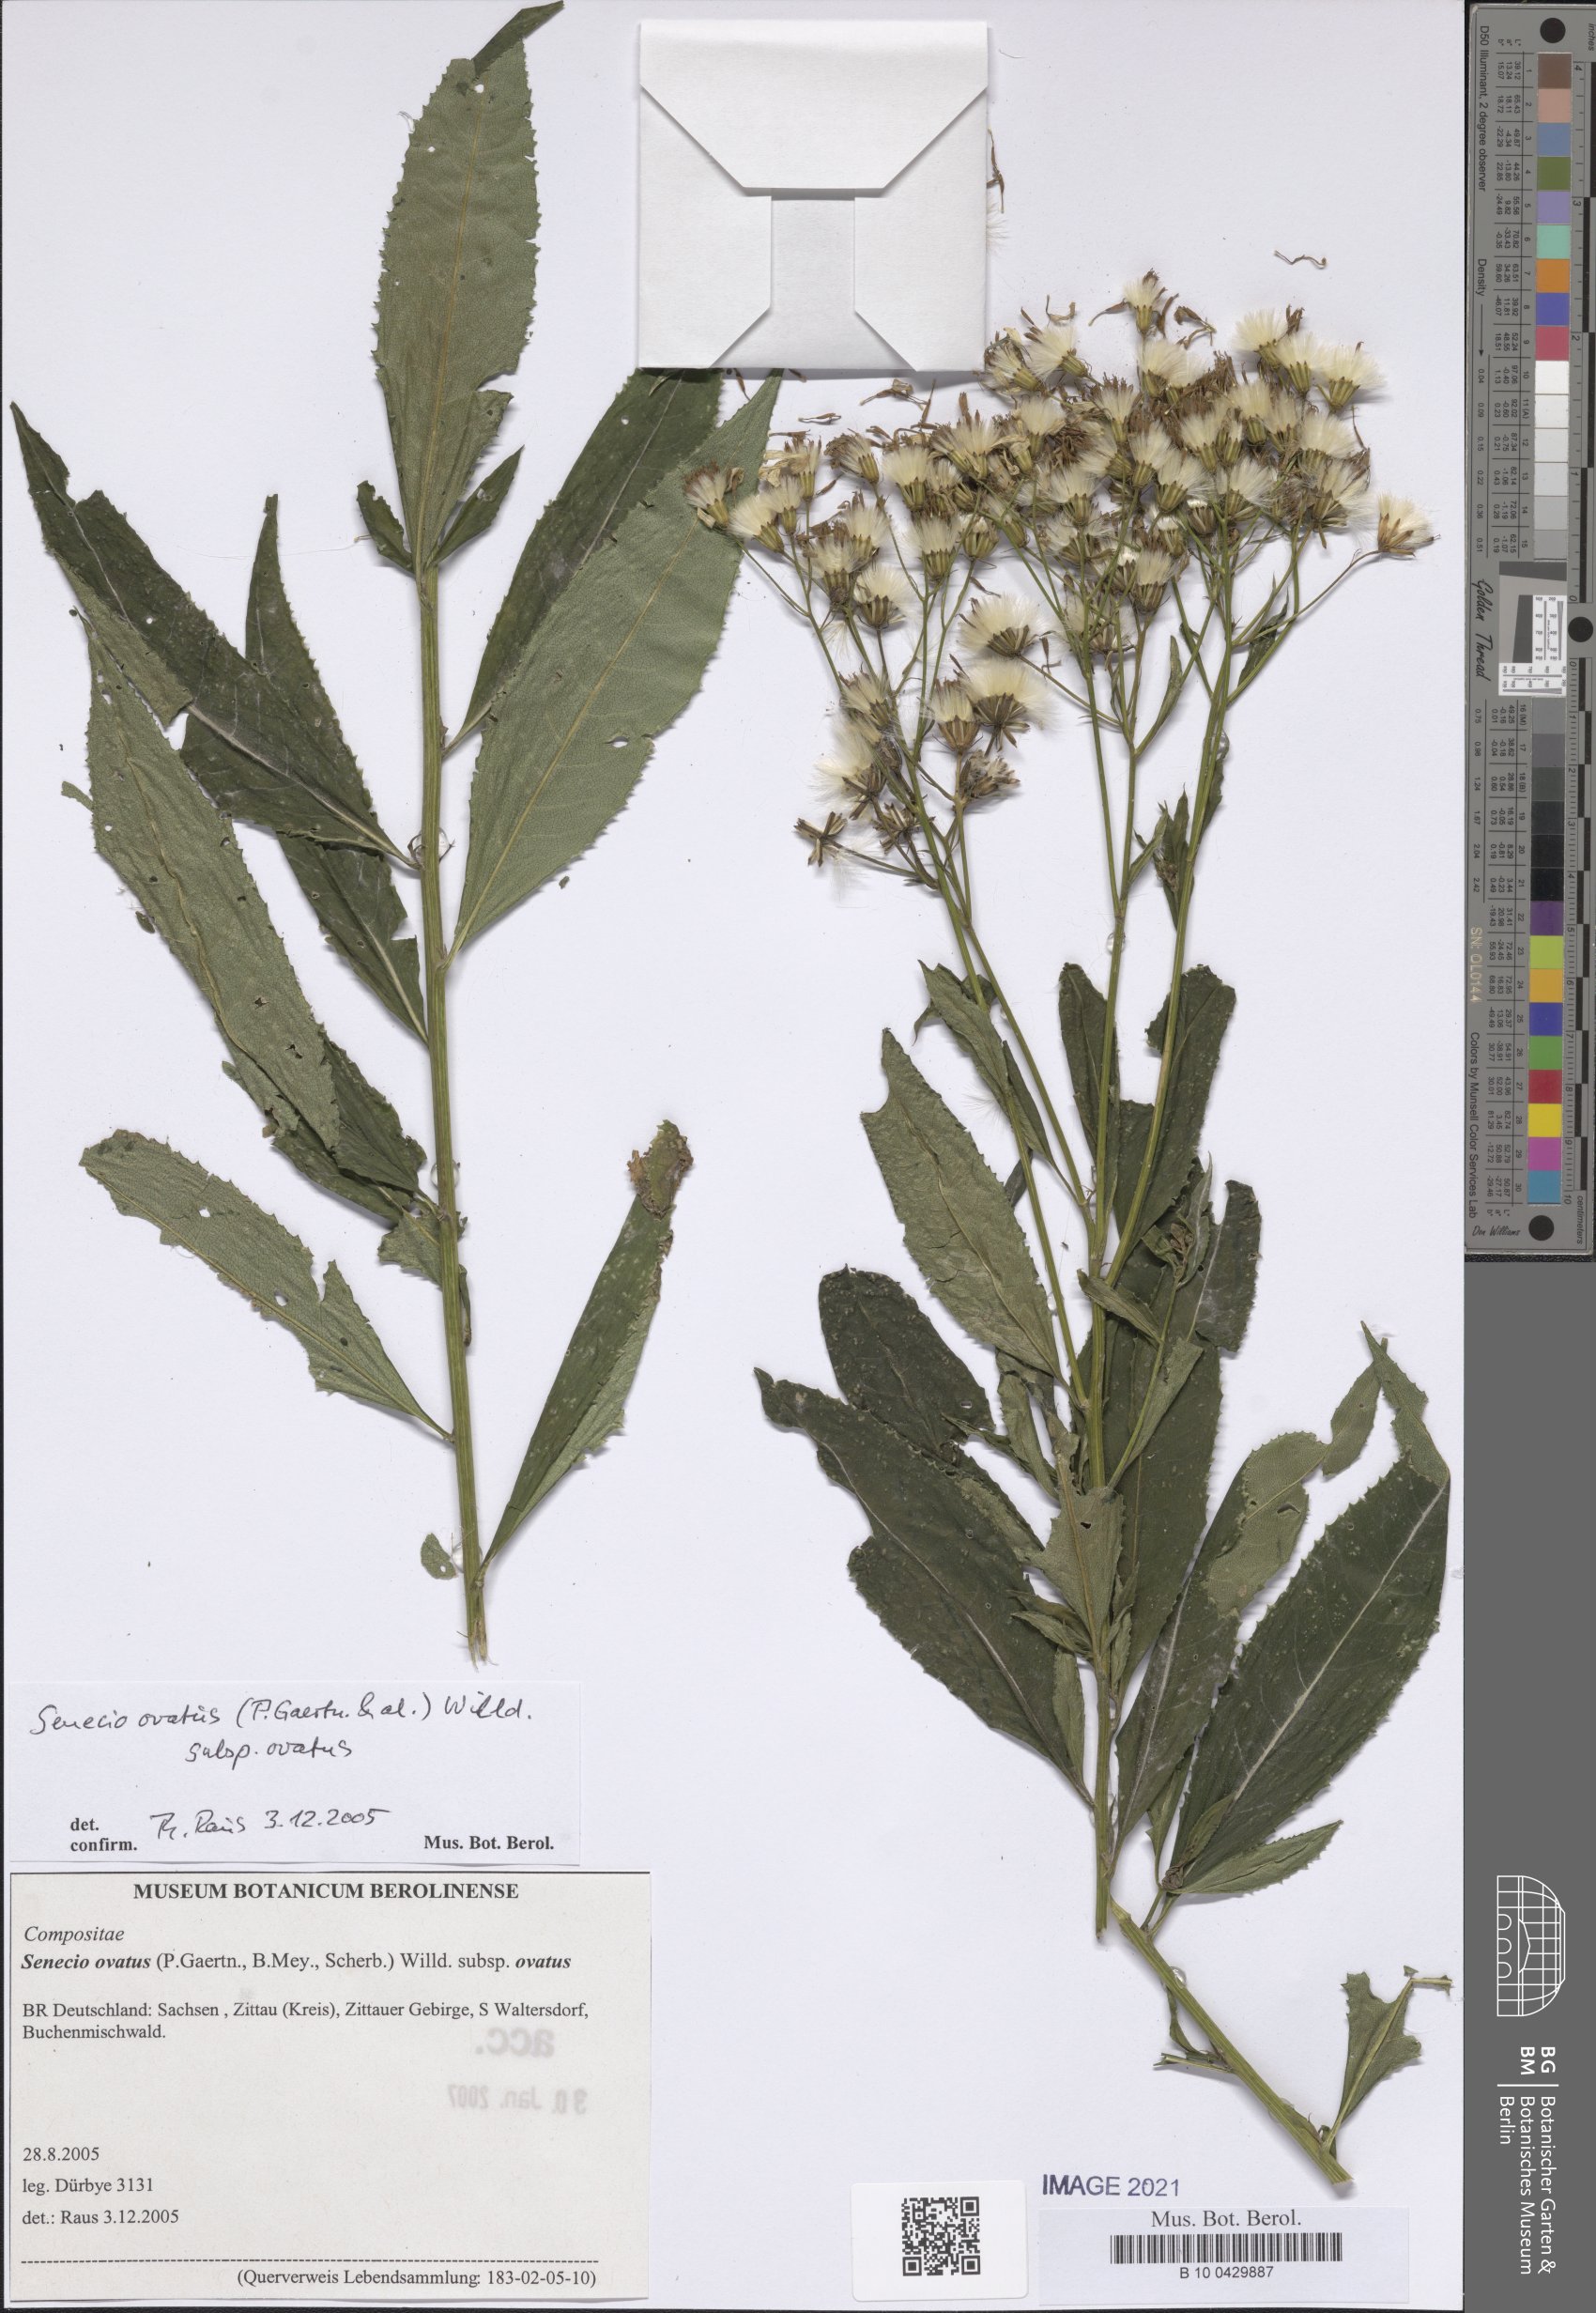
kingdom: Plantae
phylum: Tracheophyta
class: Magnoliopsida
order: Asterales
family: Asteraceae
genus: Senecio
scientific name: Senecio ovatus
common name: Wood ragwort
